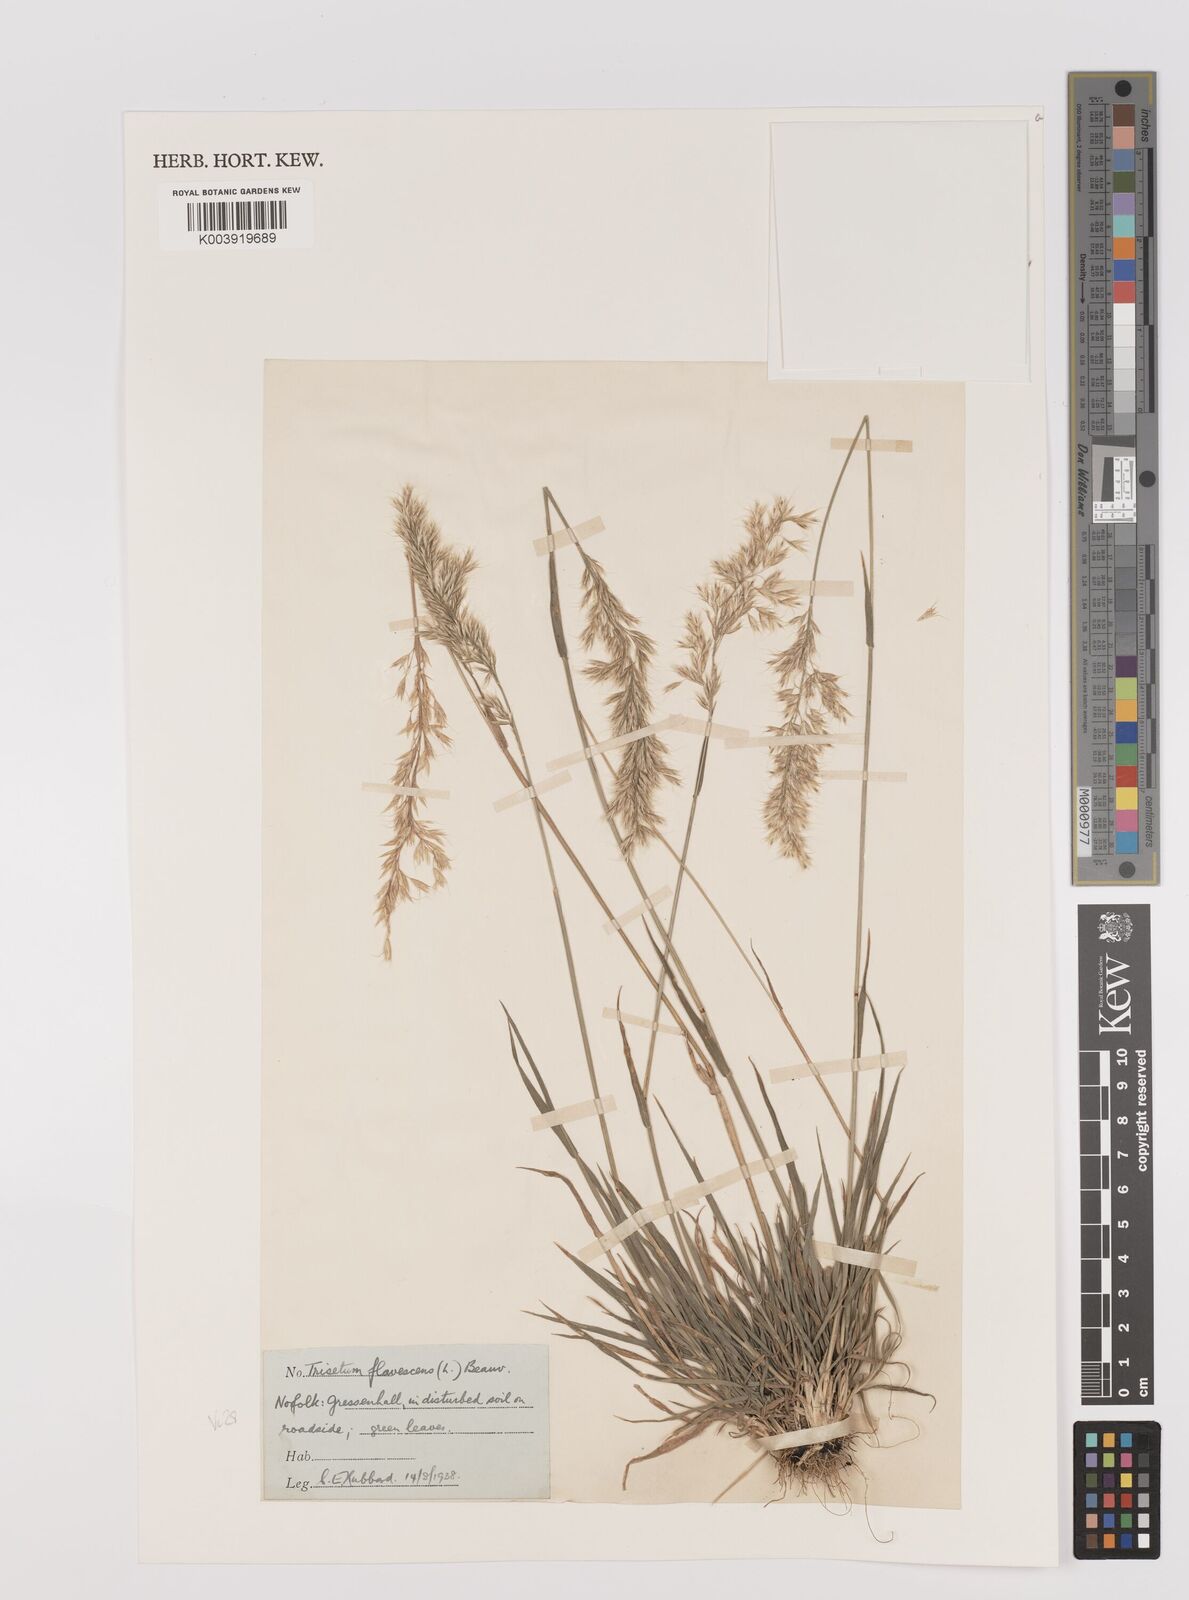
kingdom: Plantae
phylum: Tracheophyta
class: Liliopsida
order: Poales
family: Poaceae
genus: Trisetum
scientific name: Trisetum flavescens
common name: Yellow oat-grass
